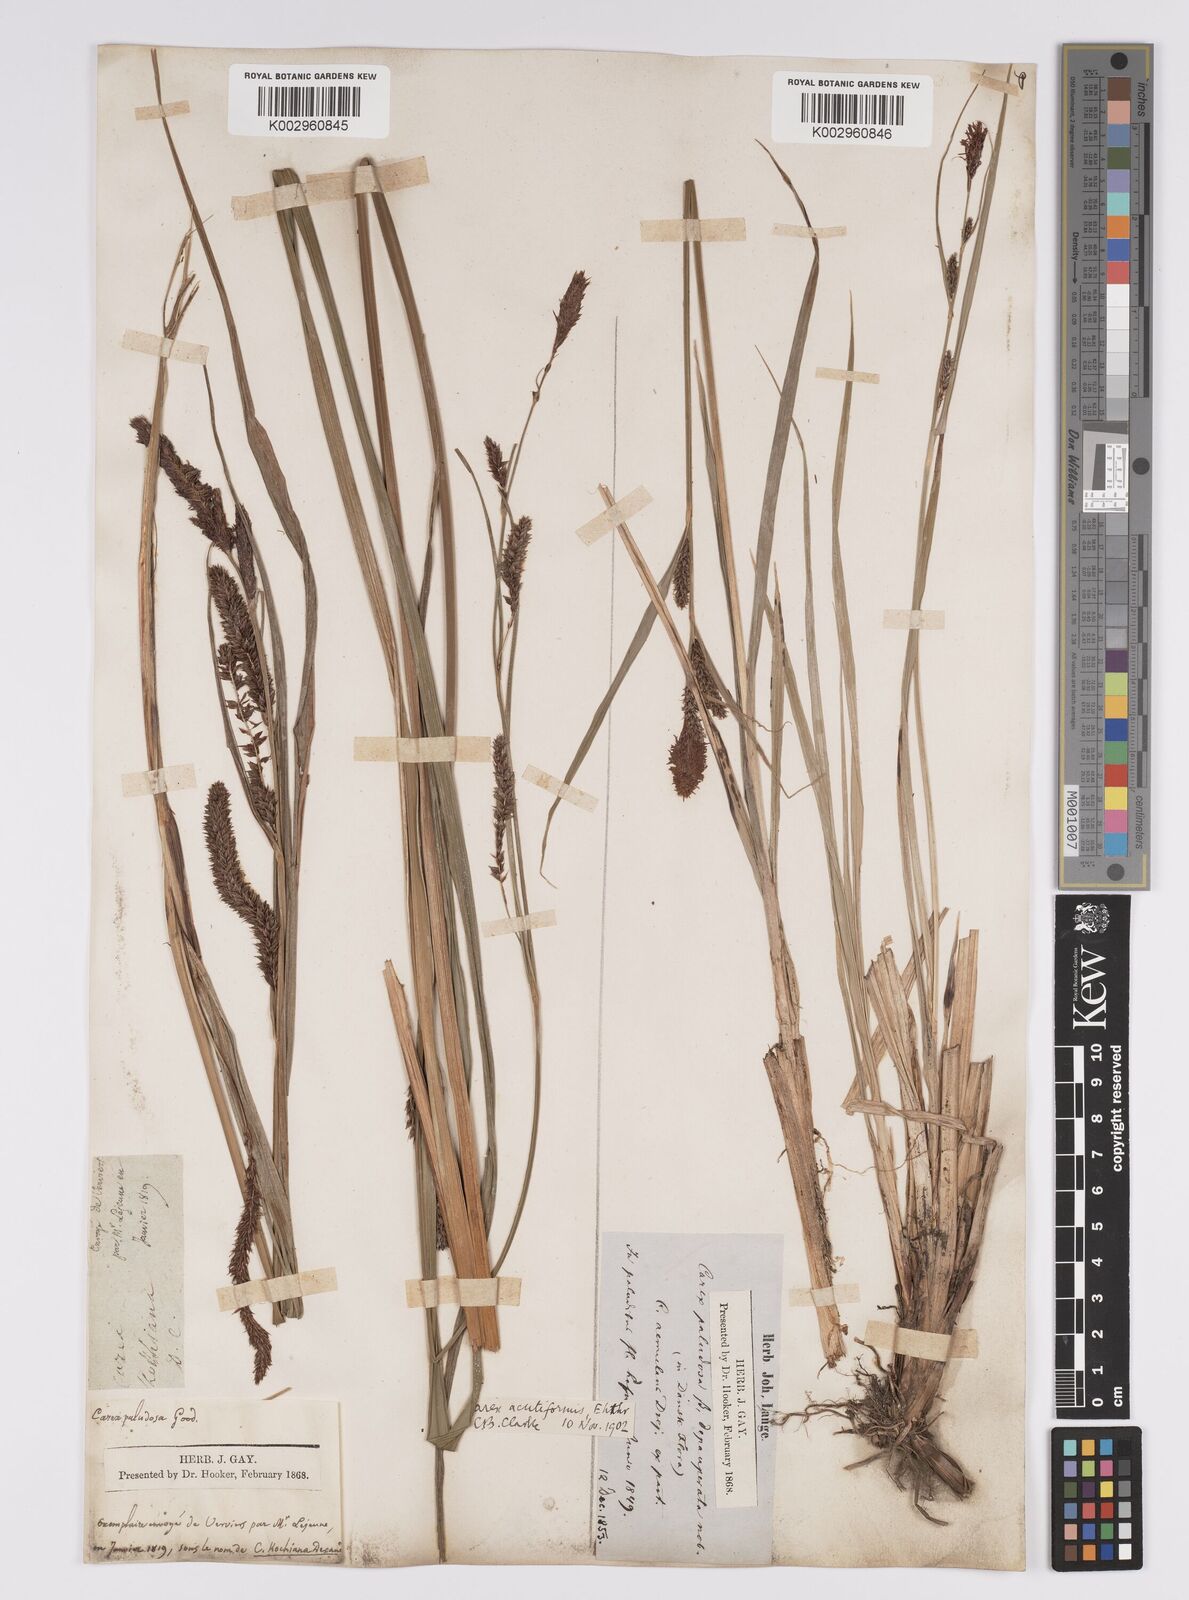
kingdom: Plantae
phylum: Tracheophyta
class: Liliopsida
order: Poales
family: Cyperaceae
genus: Carex
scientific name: Carex acutiformis
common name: Lesser pond-sedge
